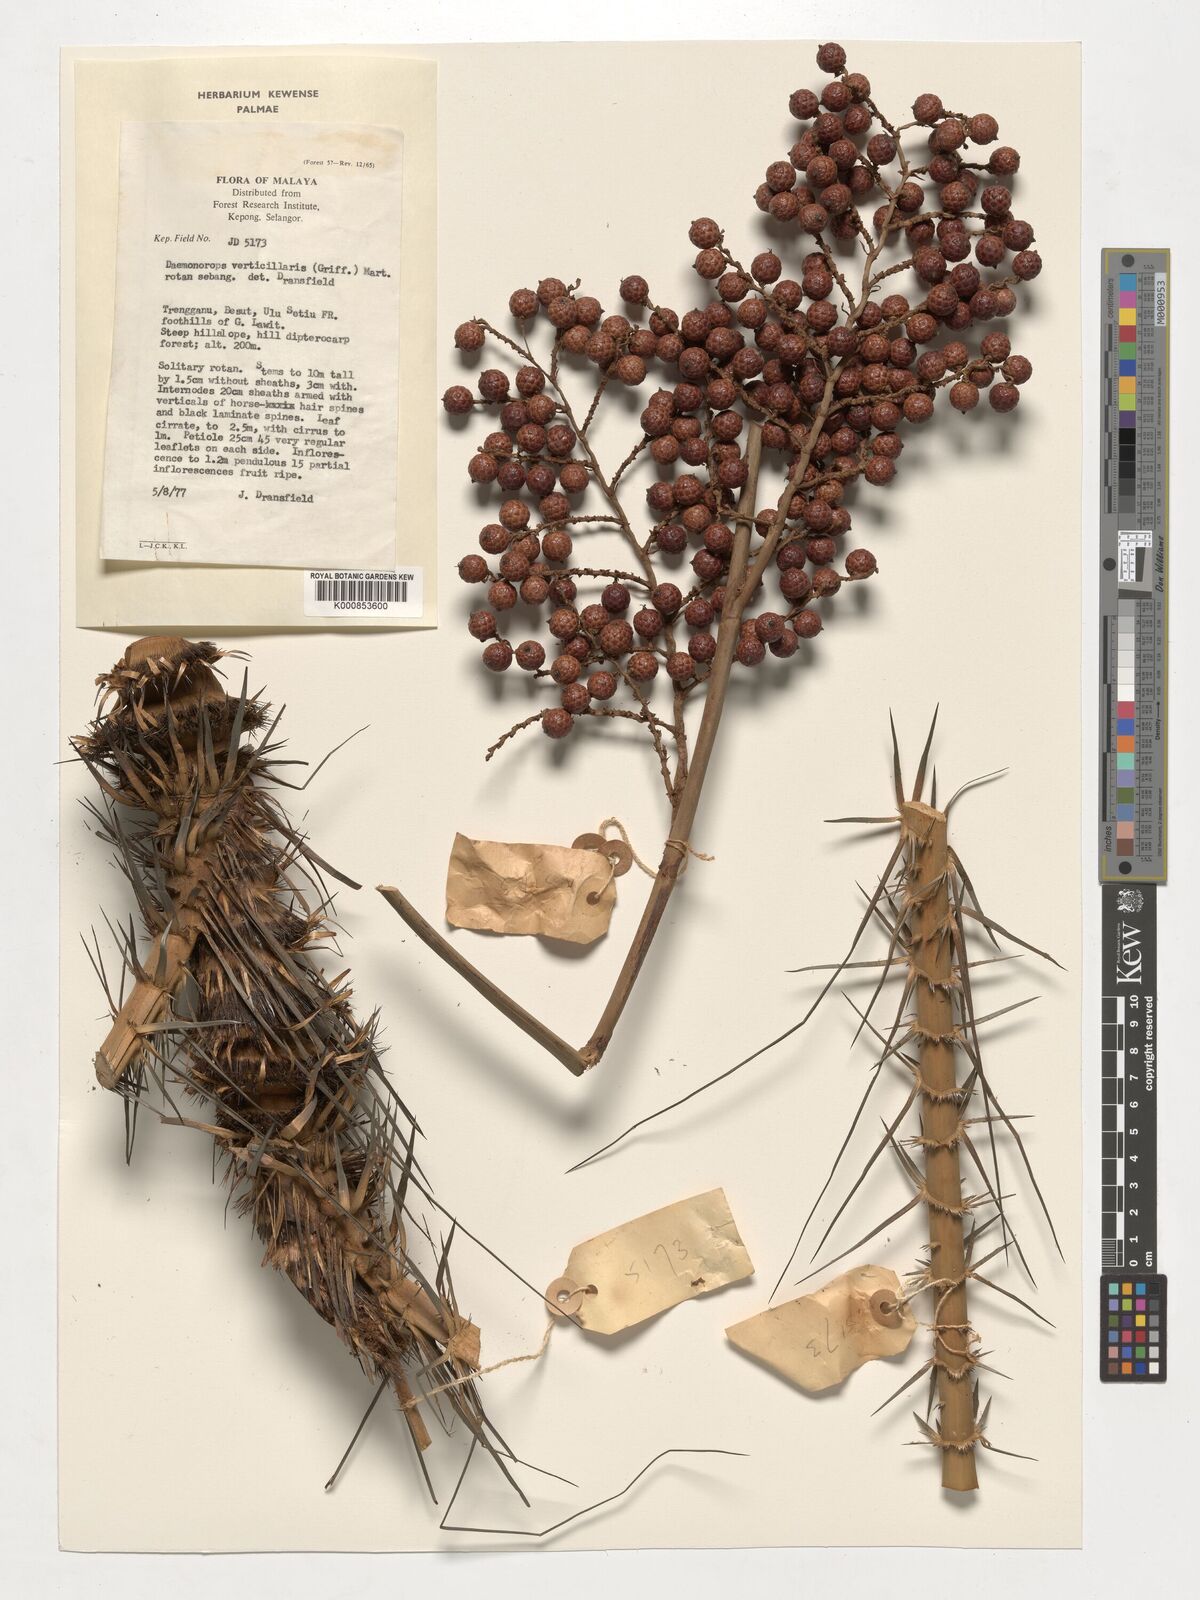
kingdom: Plantae
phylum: Tracheophyta
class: Liliopsida
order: Arecales
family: Arecaceae
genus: Calamus
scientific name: Calamus verticillaris
